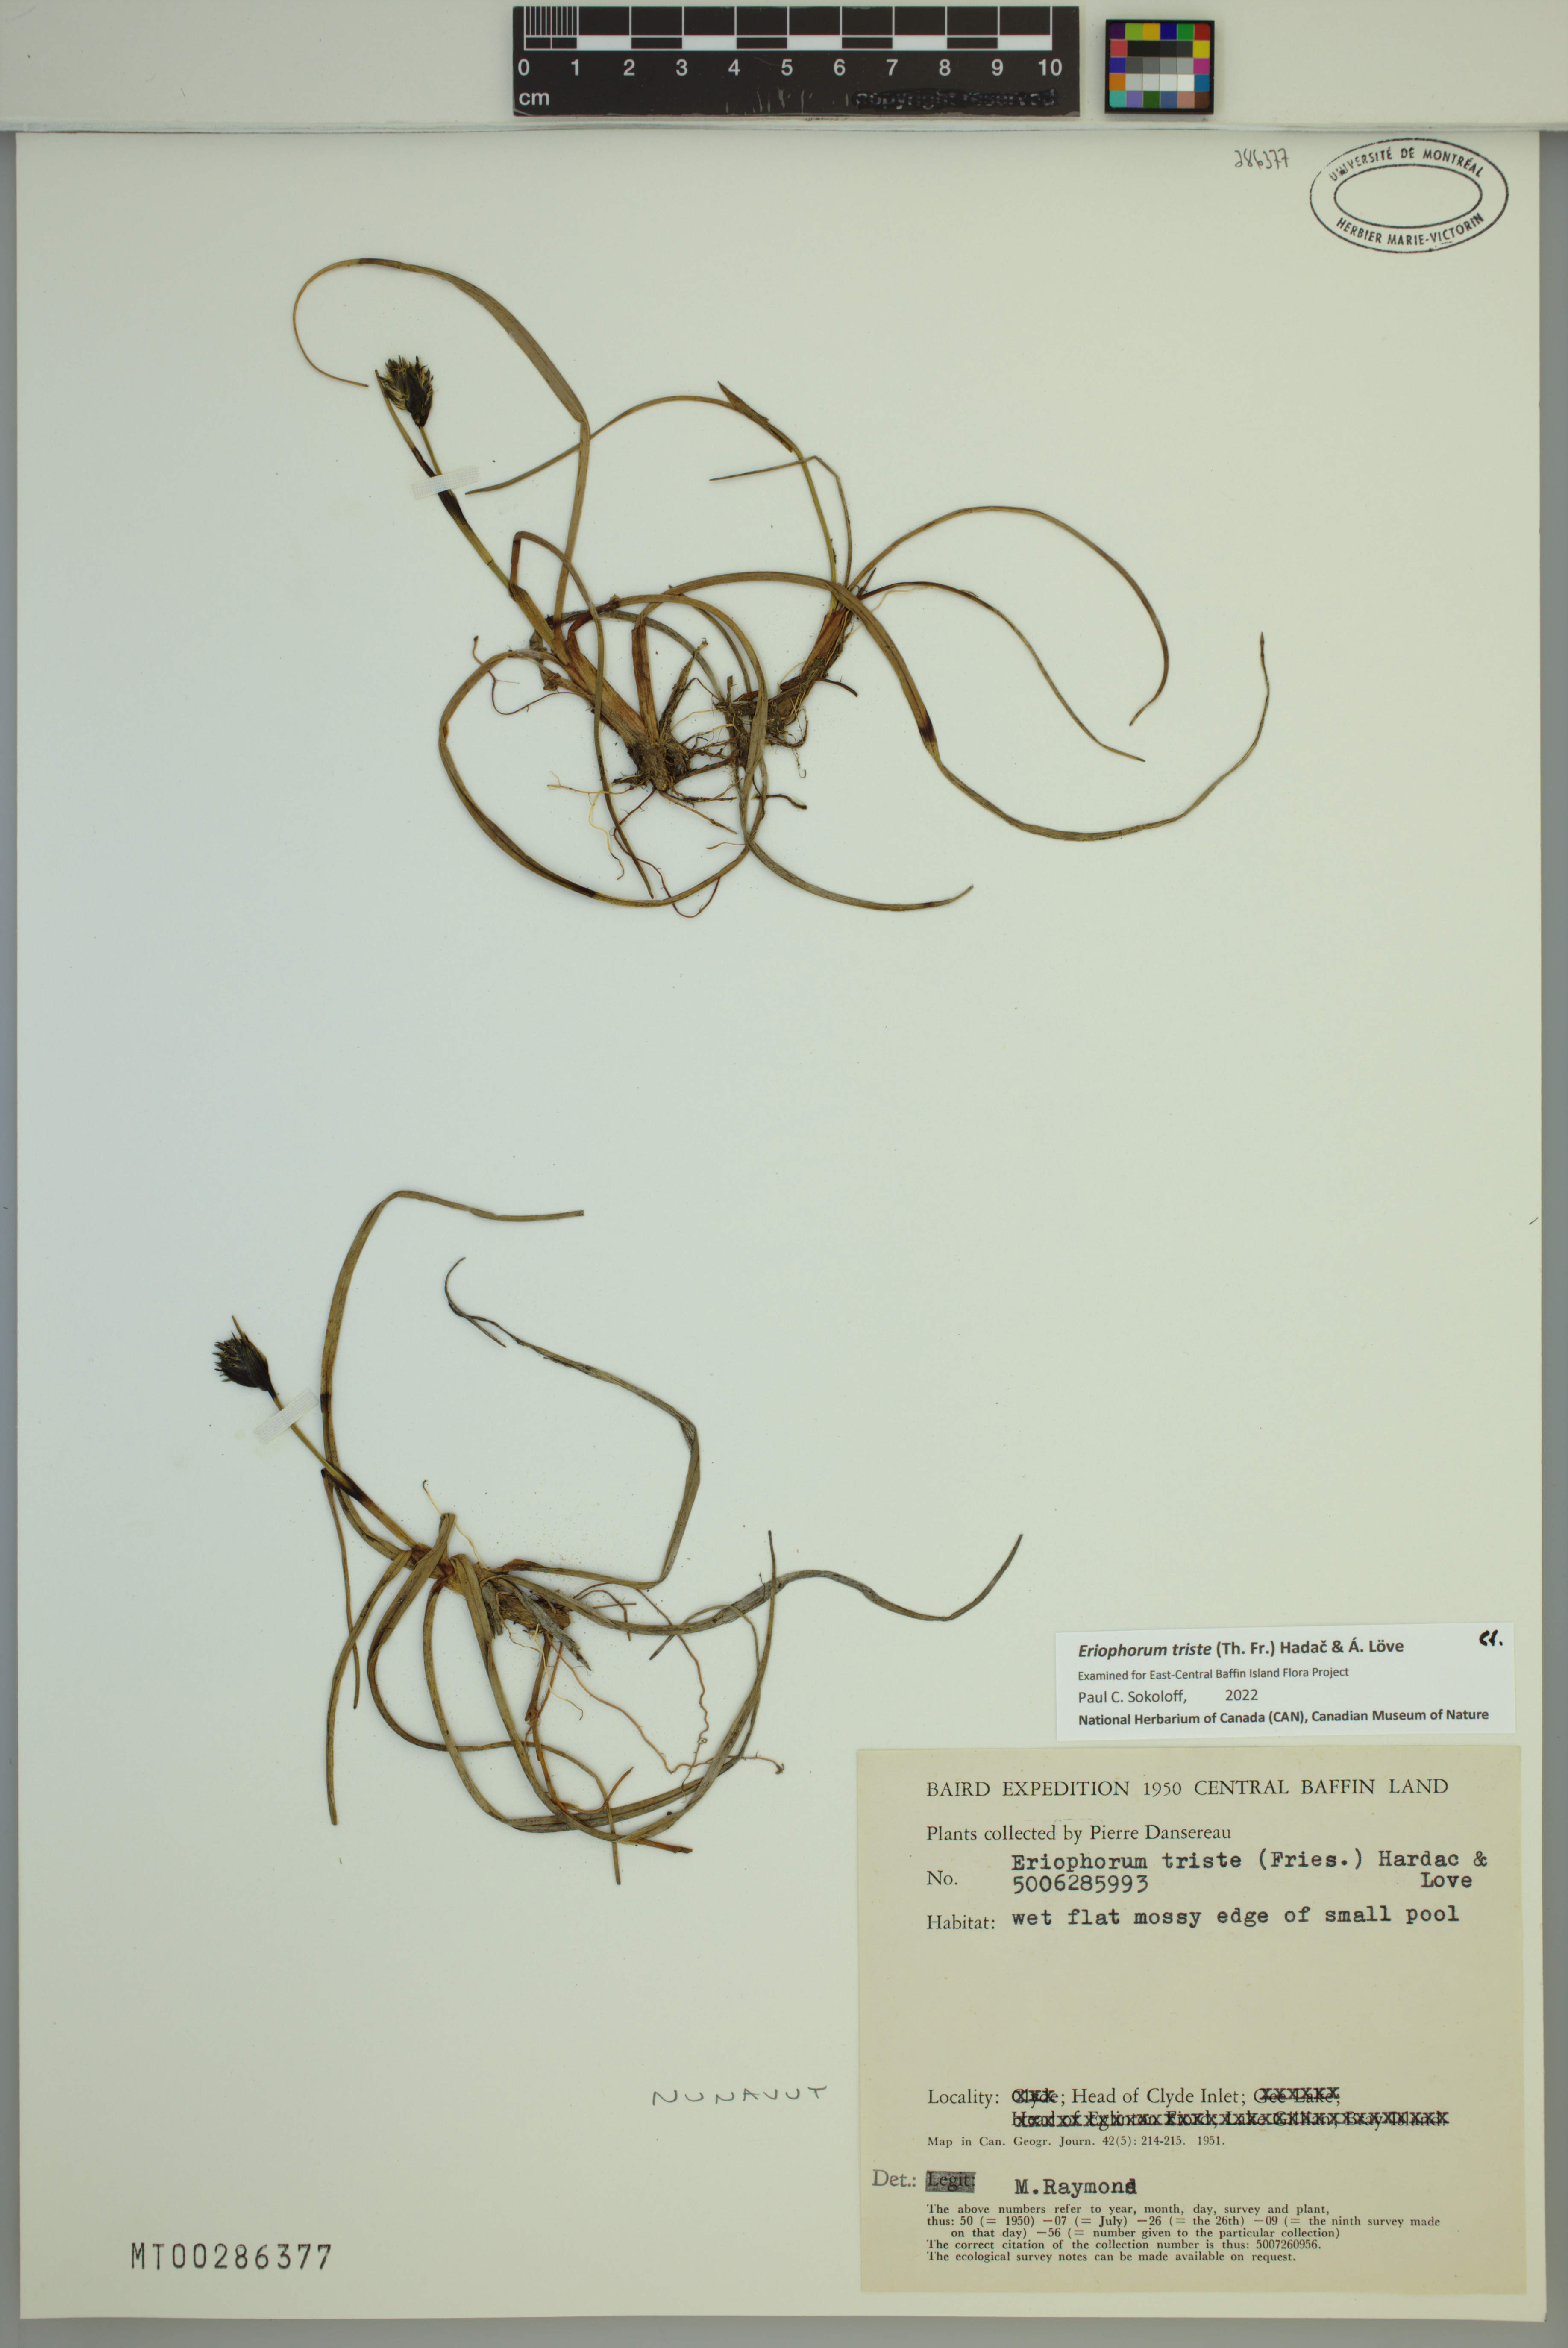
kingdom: Plantae
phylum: Tracheophyta
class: Liliopsida
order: Poales
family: Cyperaceae
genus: Eriophorum
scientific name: Eriophorum triste
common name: Tall cottongrass
